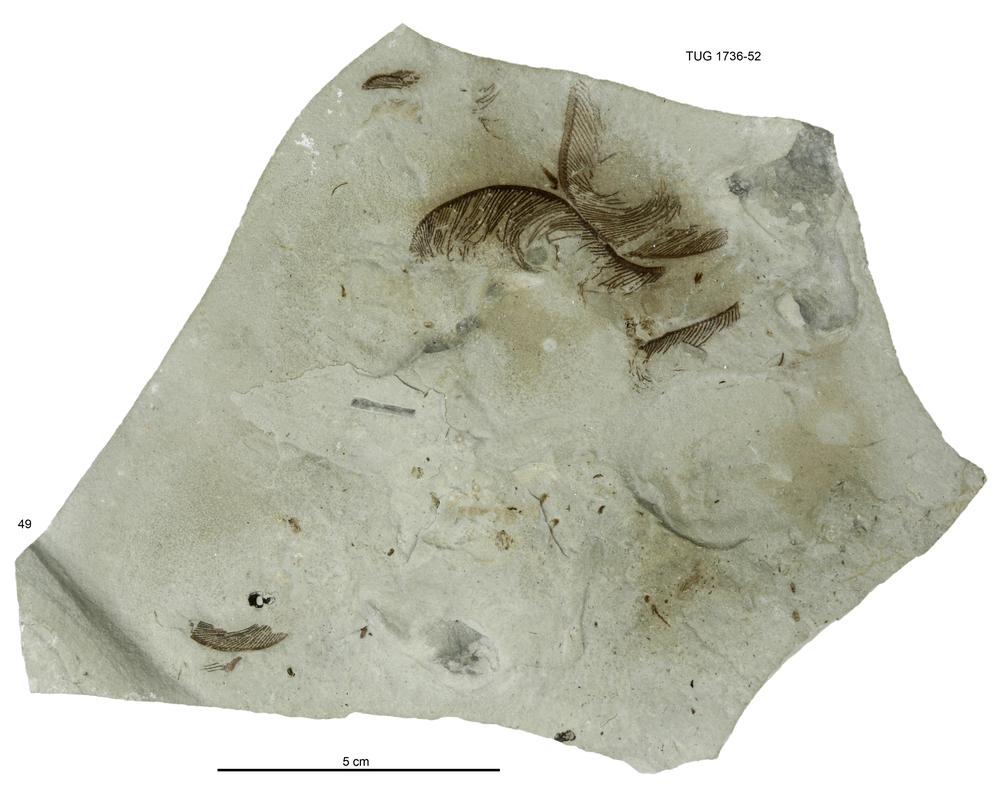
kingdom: Animalia
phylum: Echinodermata
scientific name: Echinodermata
